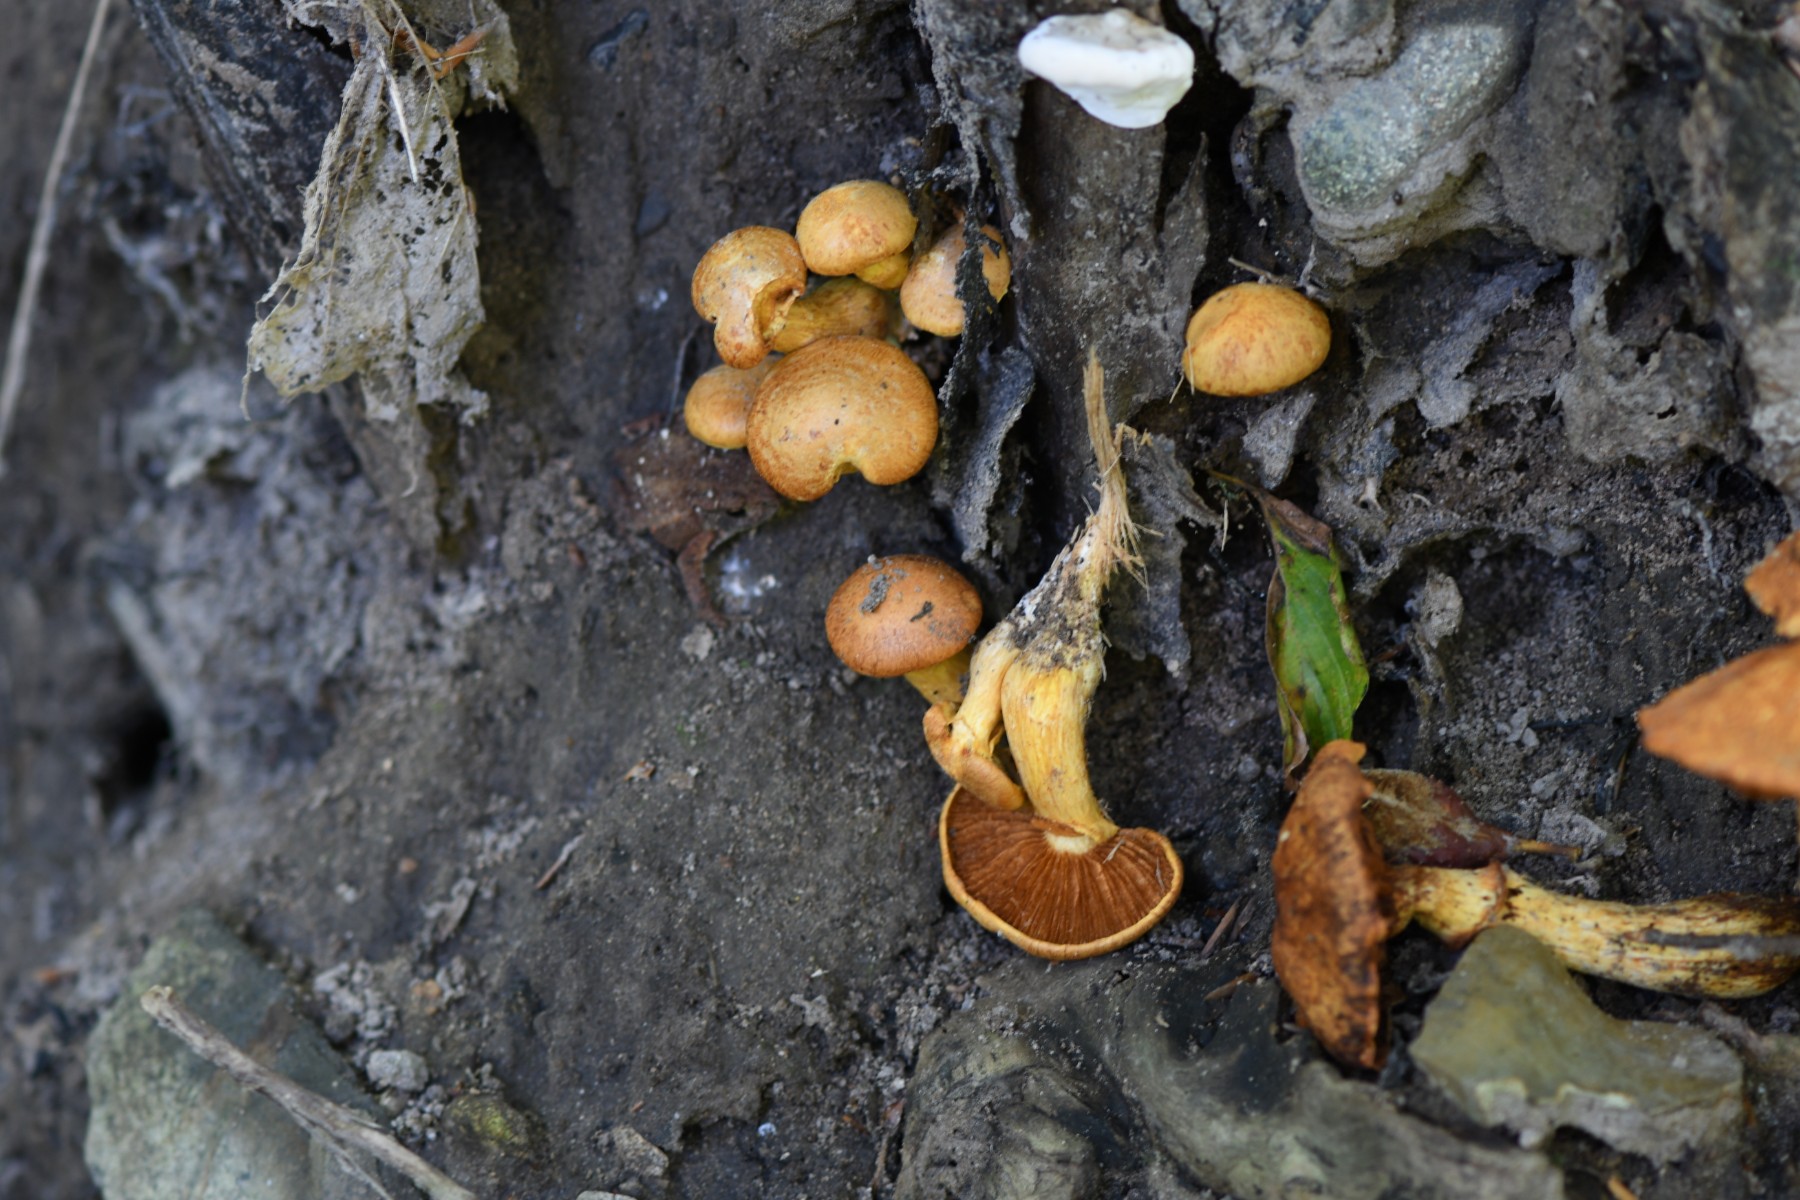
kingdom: Fungi
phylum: Basidiomycota
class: Agaricomycetes
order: Agaricales
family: Hymenogastraceae
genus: Gymnopilus
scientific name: Gymnopilus spectabilis
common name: fibret flammehat
